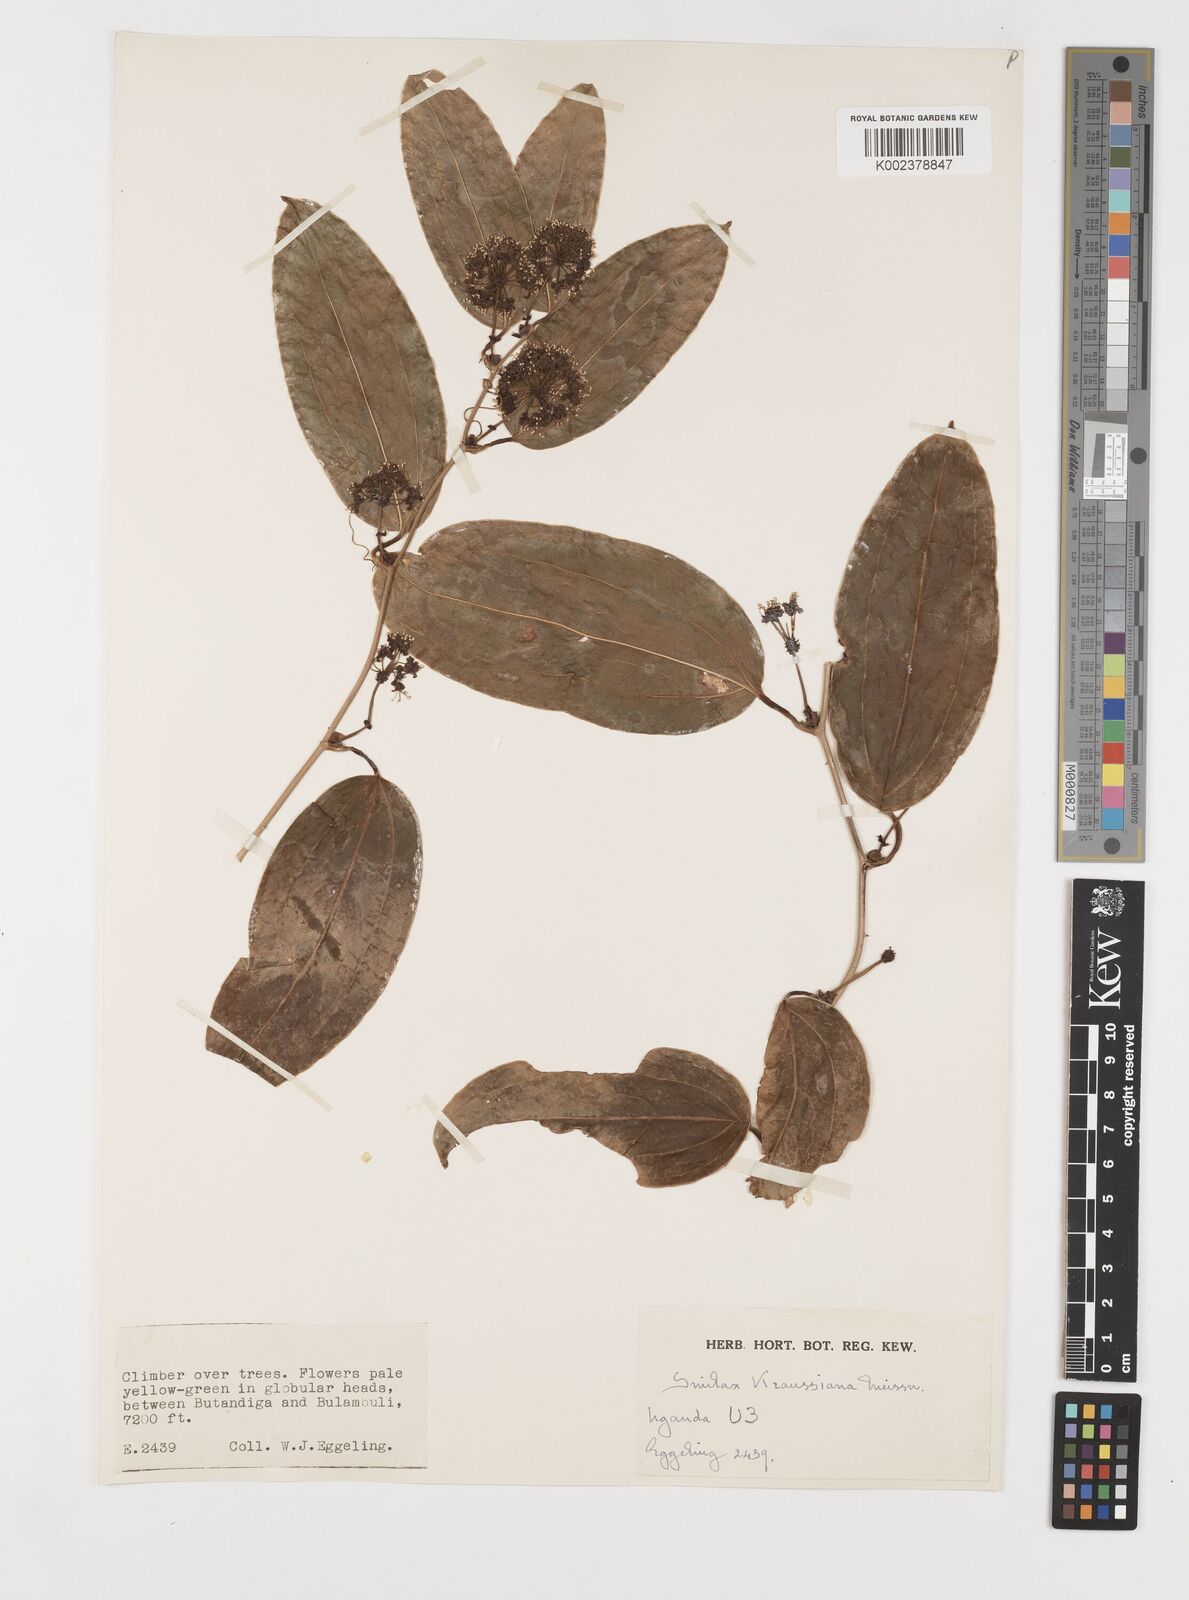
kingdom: Plantae
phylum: Tracheophyta
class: Liliopsida
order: Liliales
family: Smilacaceae
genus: Smilax
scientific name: Smilax anceps
